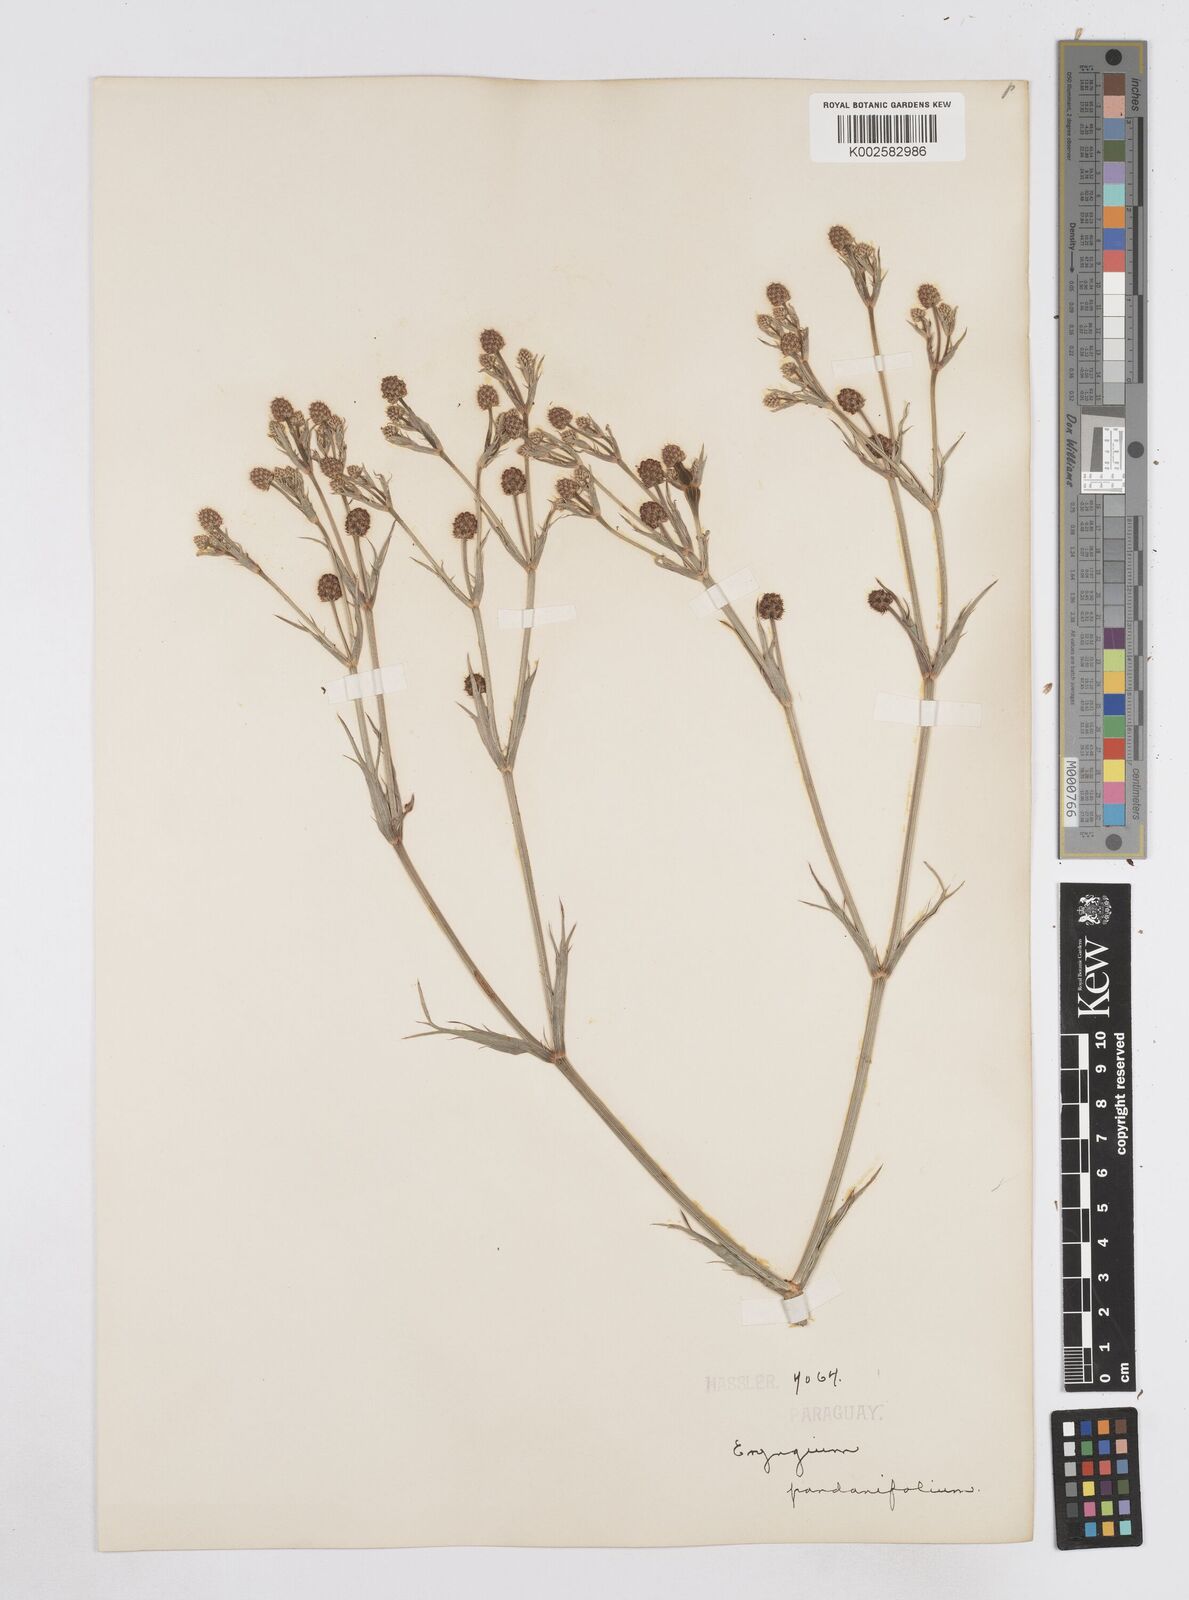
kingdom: Plantae
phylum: Tracheophyta
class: Magnoliopsida
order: Apiales
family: Apiaceae
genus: Eryngium
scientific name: Eryngium pandanifolium
